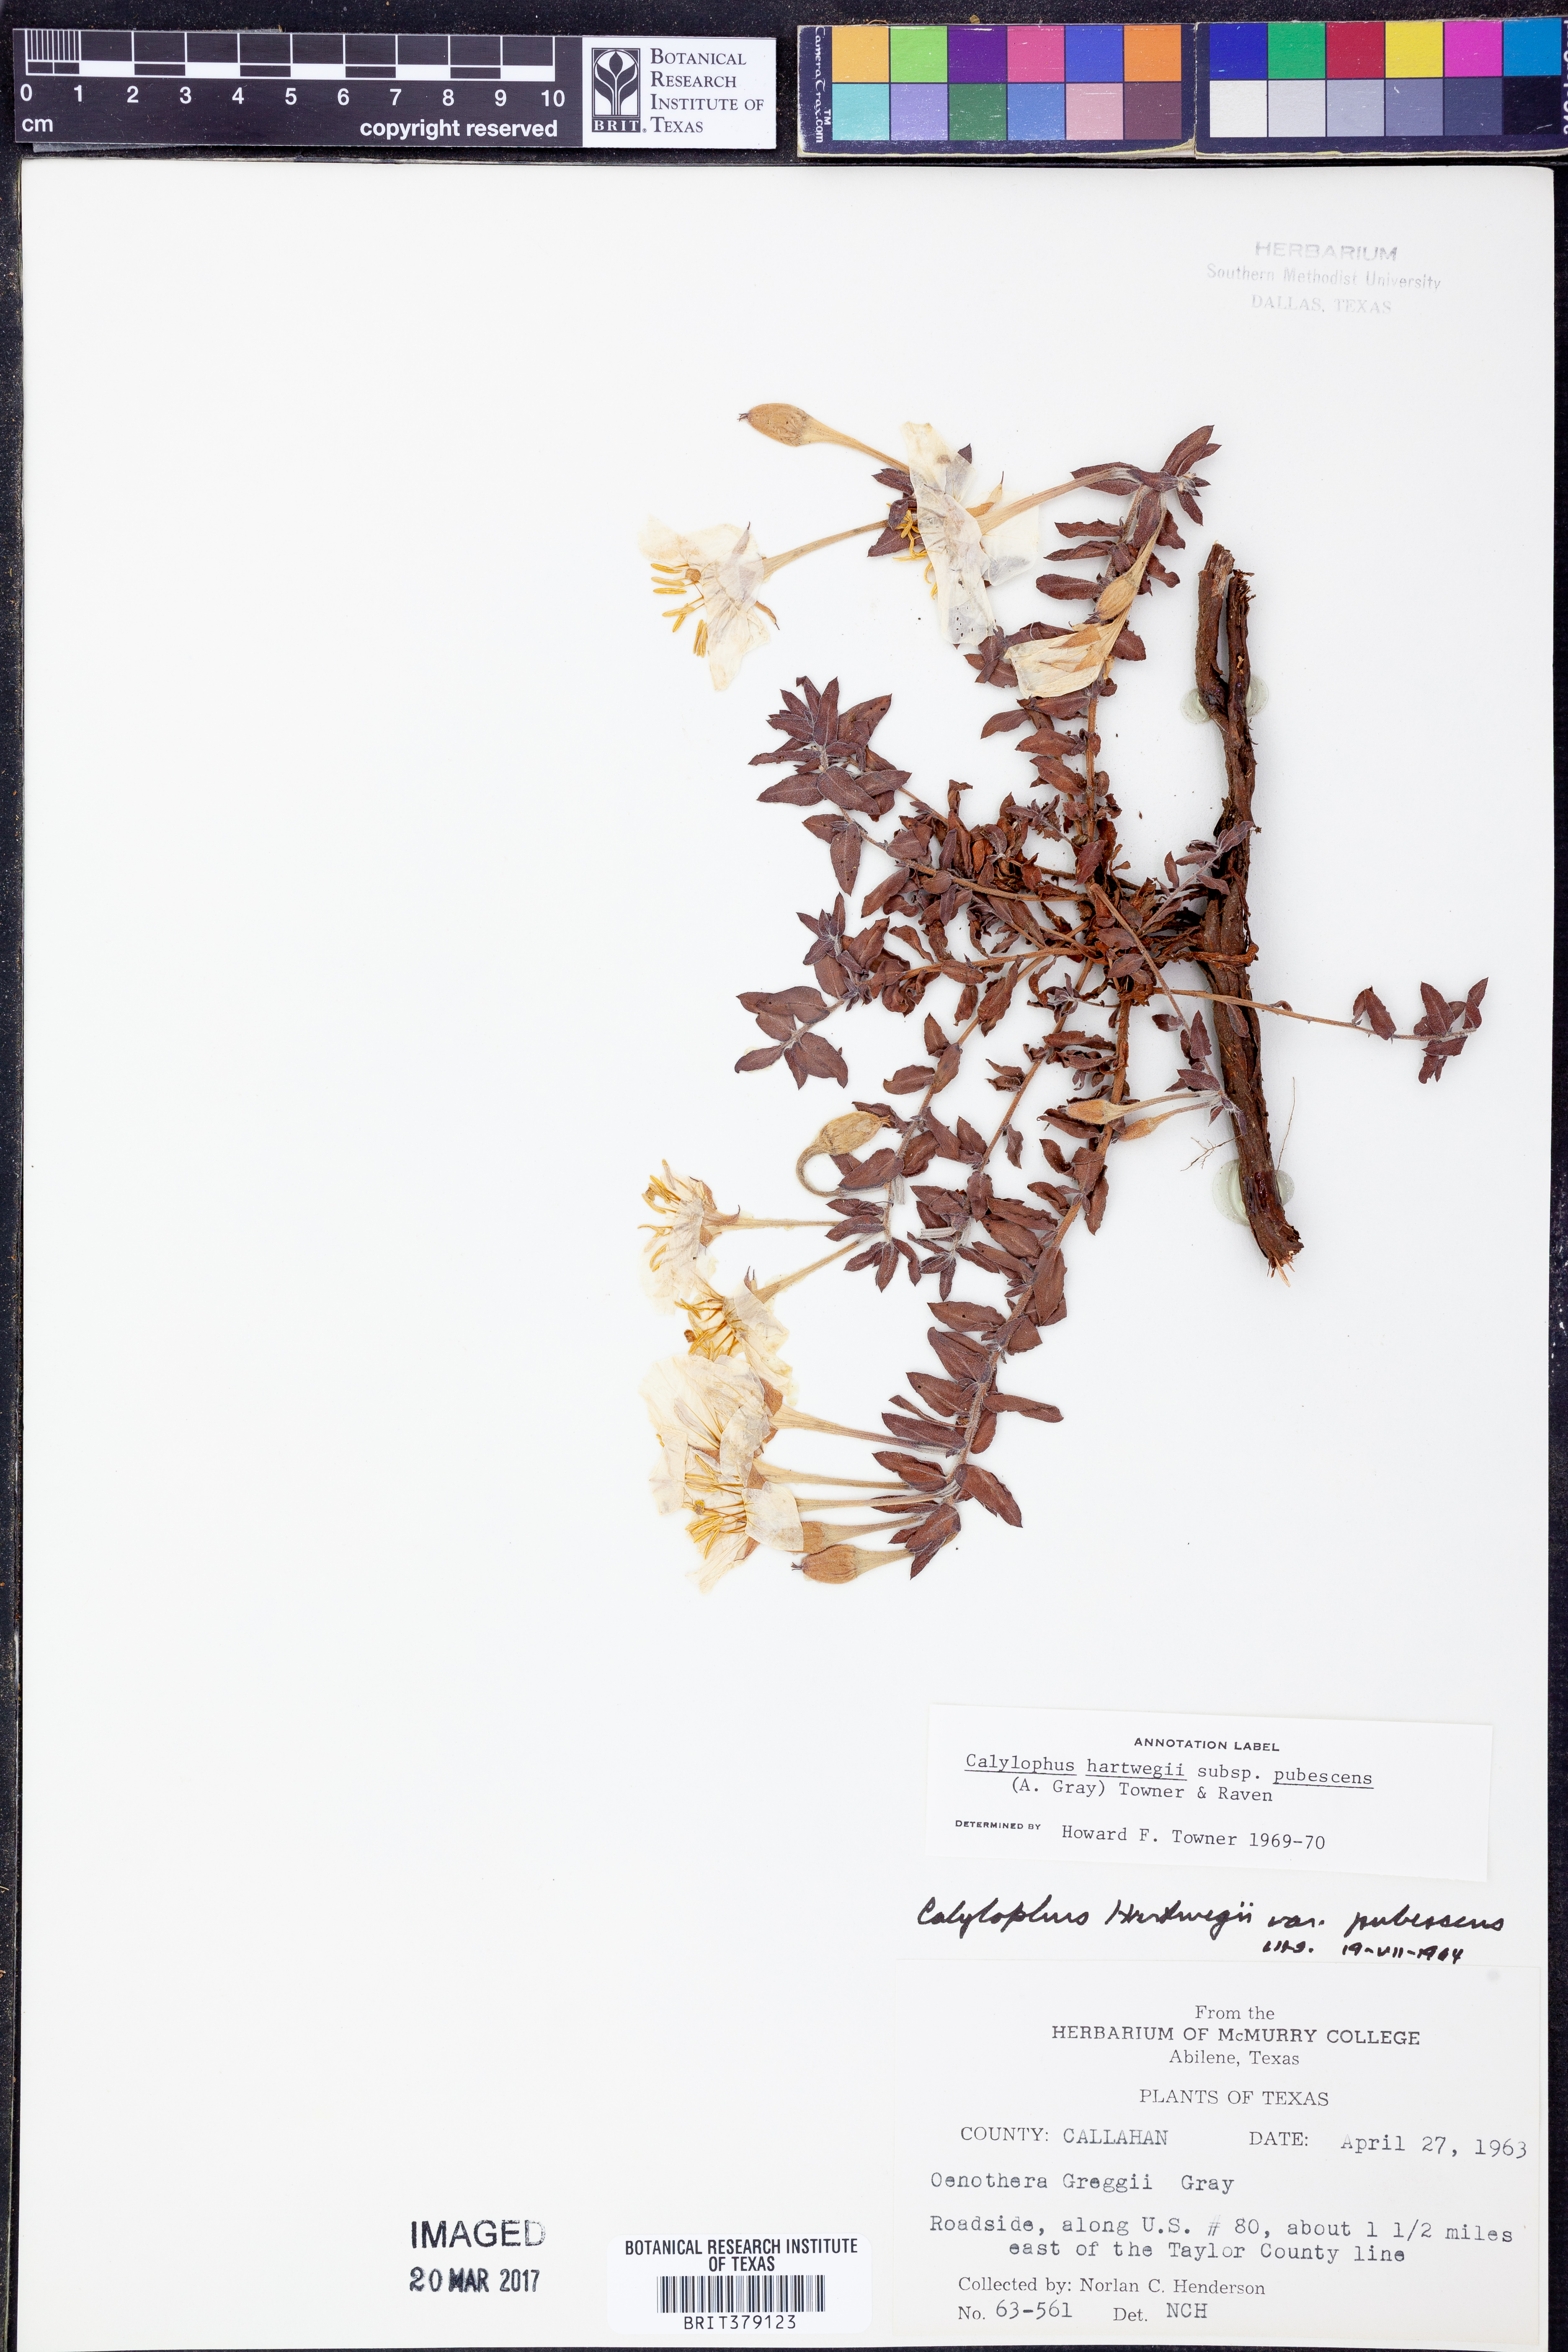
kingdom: Plantae
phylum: Tracheophyta
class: Magnoliopsida
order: Myrtales
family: Onagraceae
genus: Oenothera
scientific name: Oenothera hartwegii
